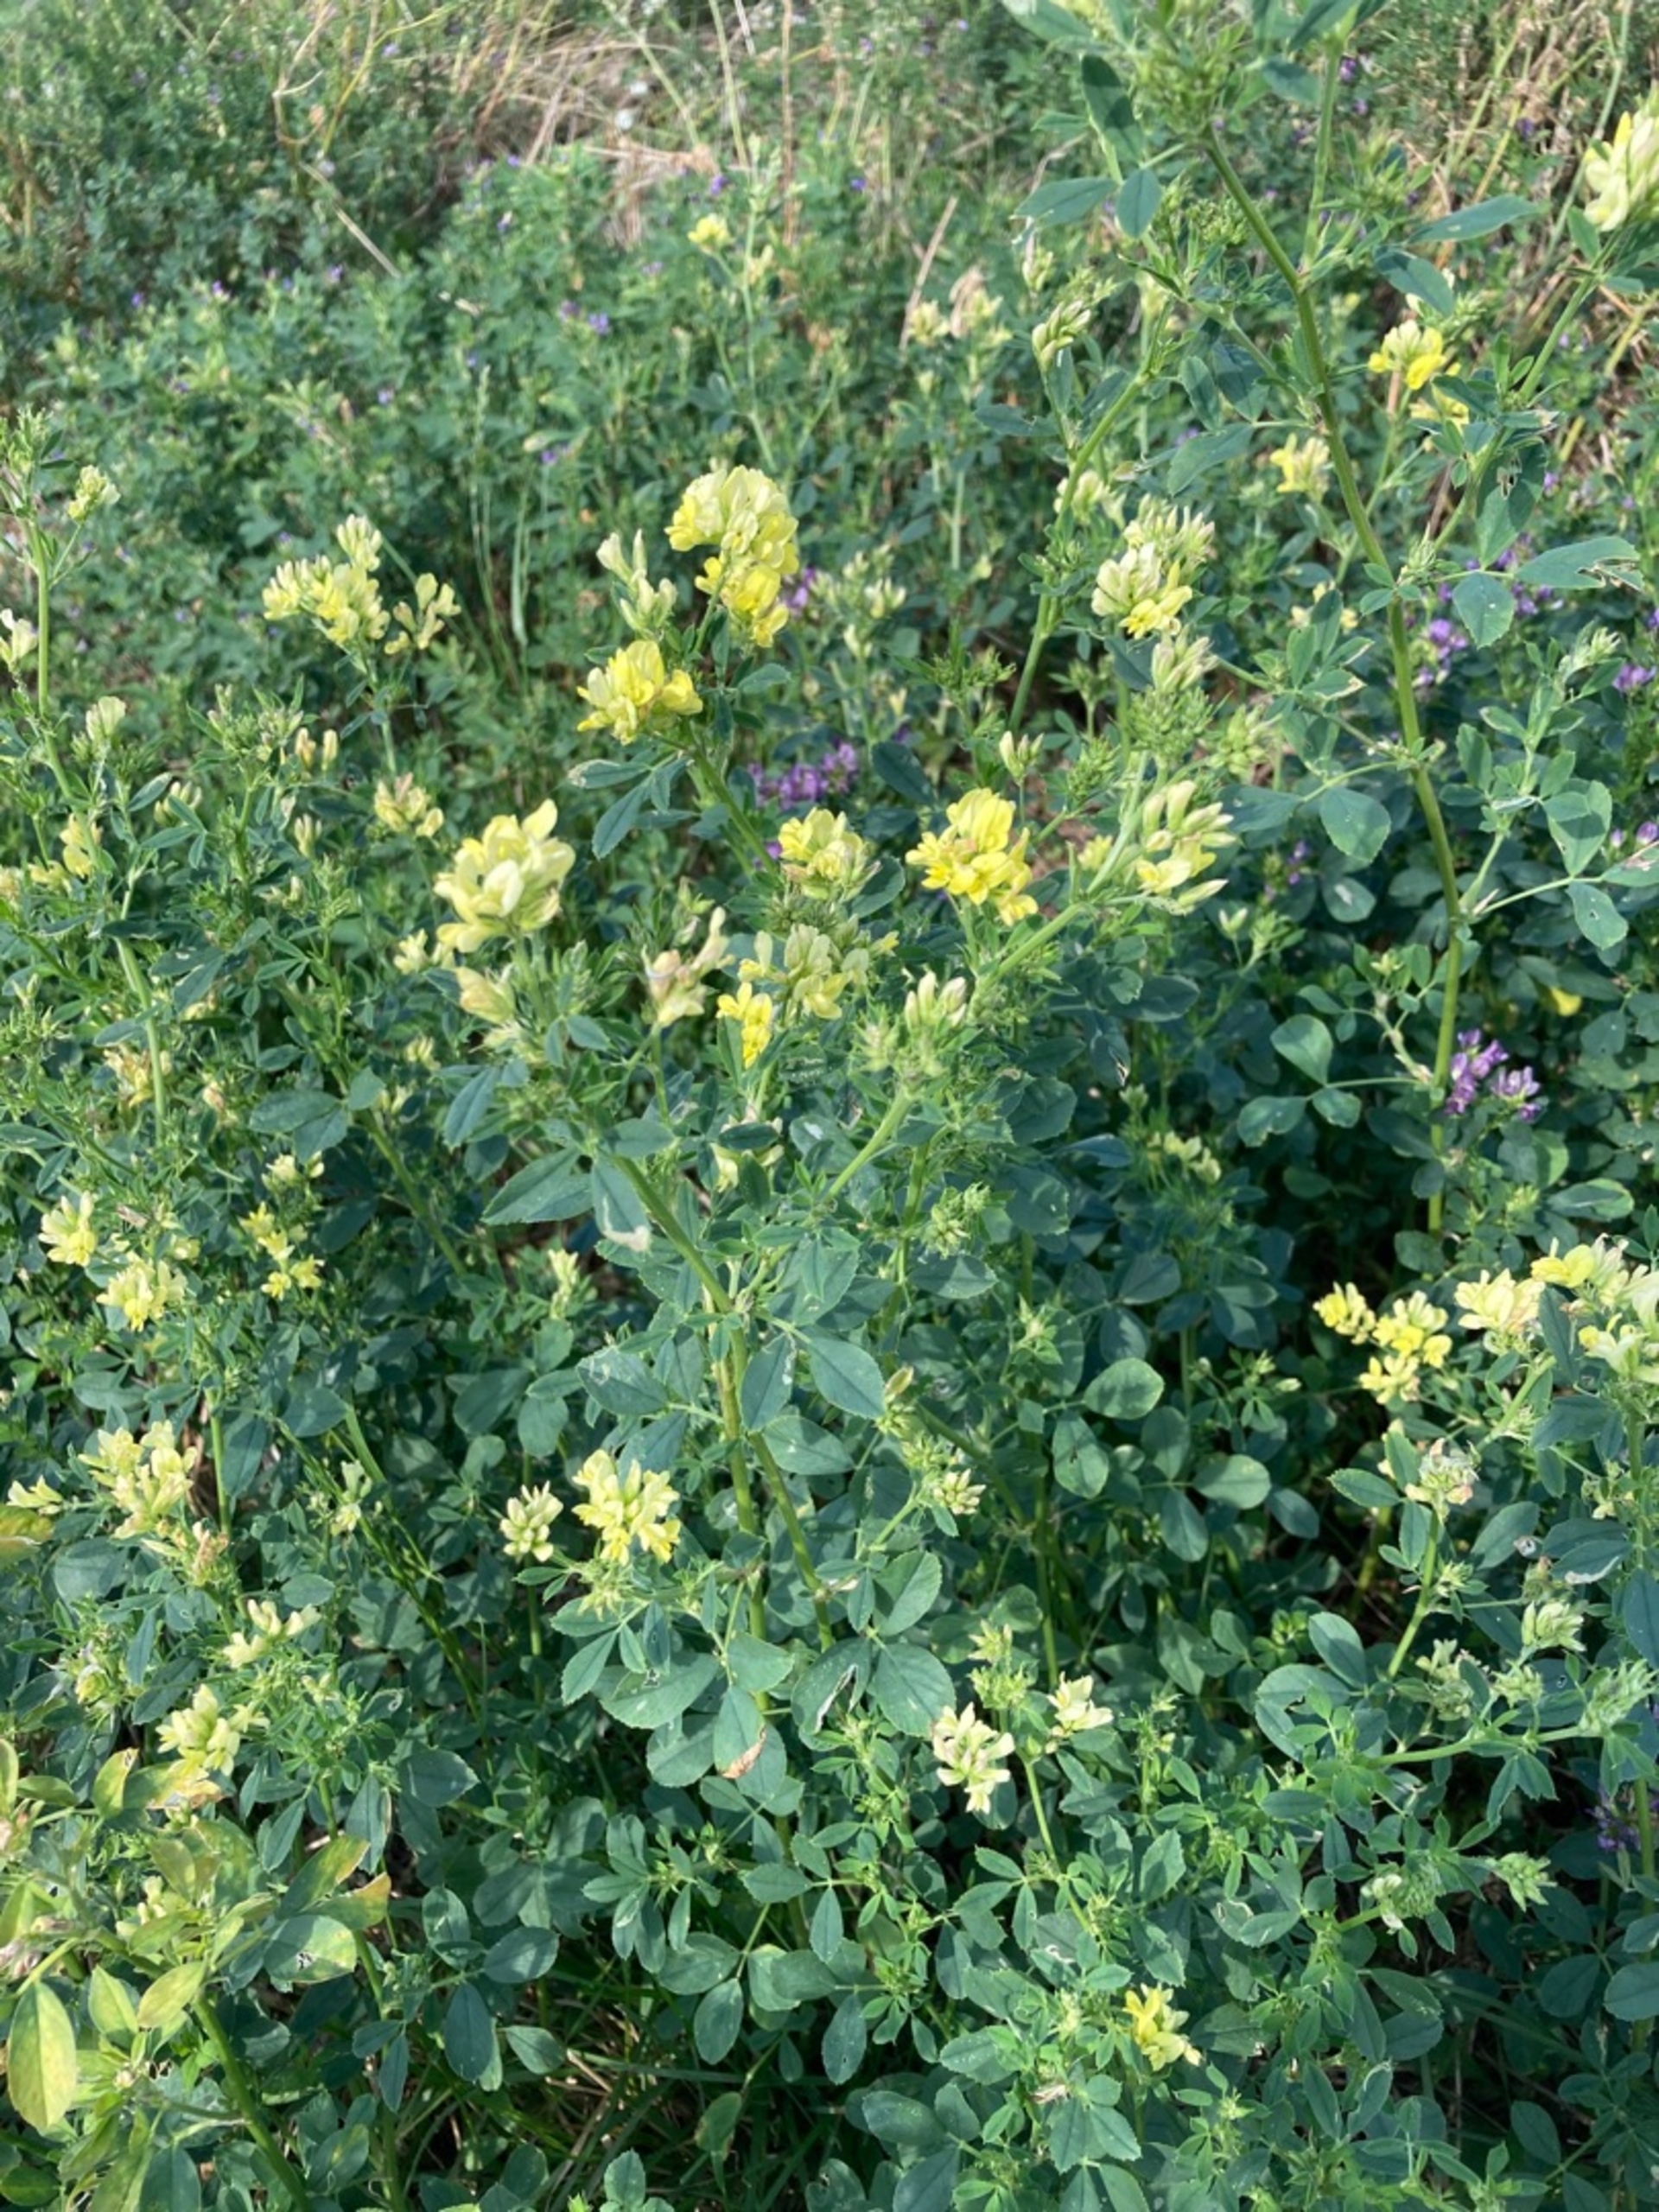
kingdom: Plantae
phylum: Tracheophyta
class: Magnoliopsida
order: Fabales
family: Fabaceae
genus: Medicago
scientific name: Medicago varia
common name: Sand-lucerne
